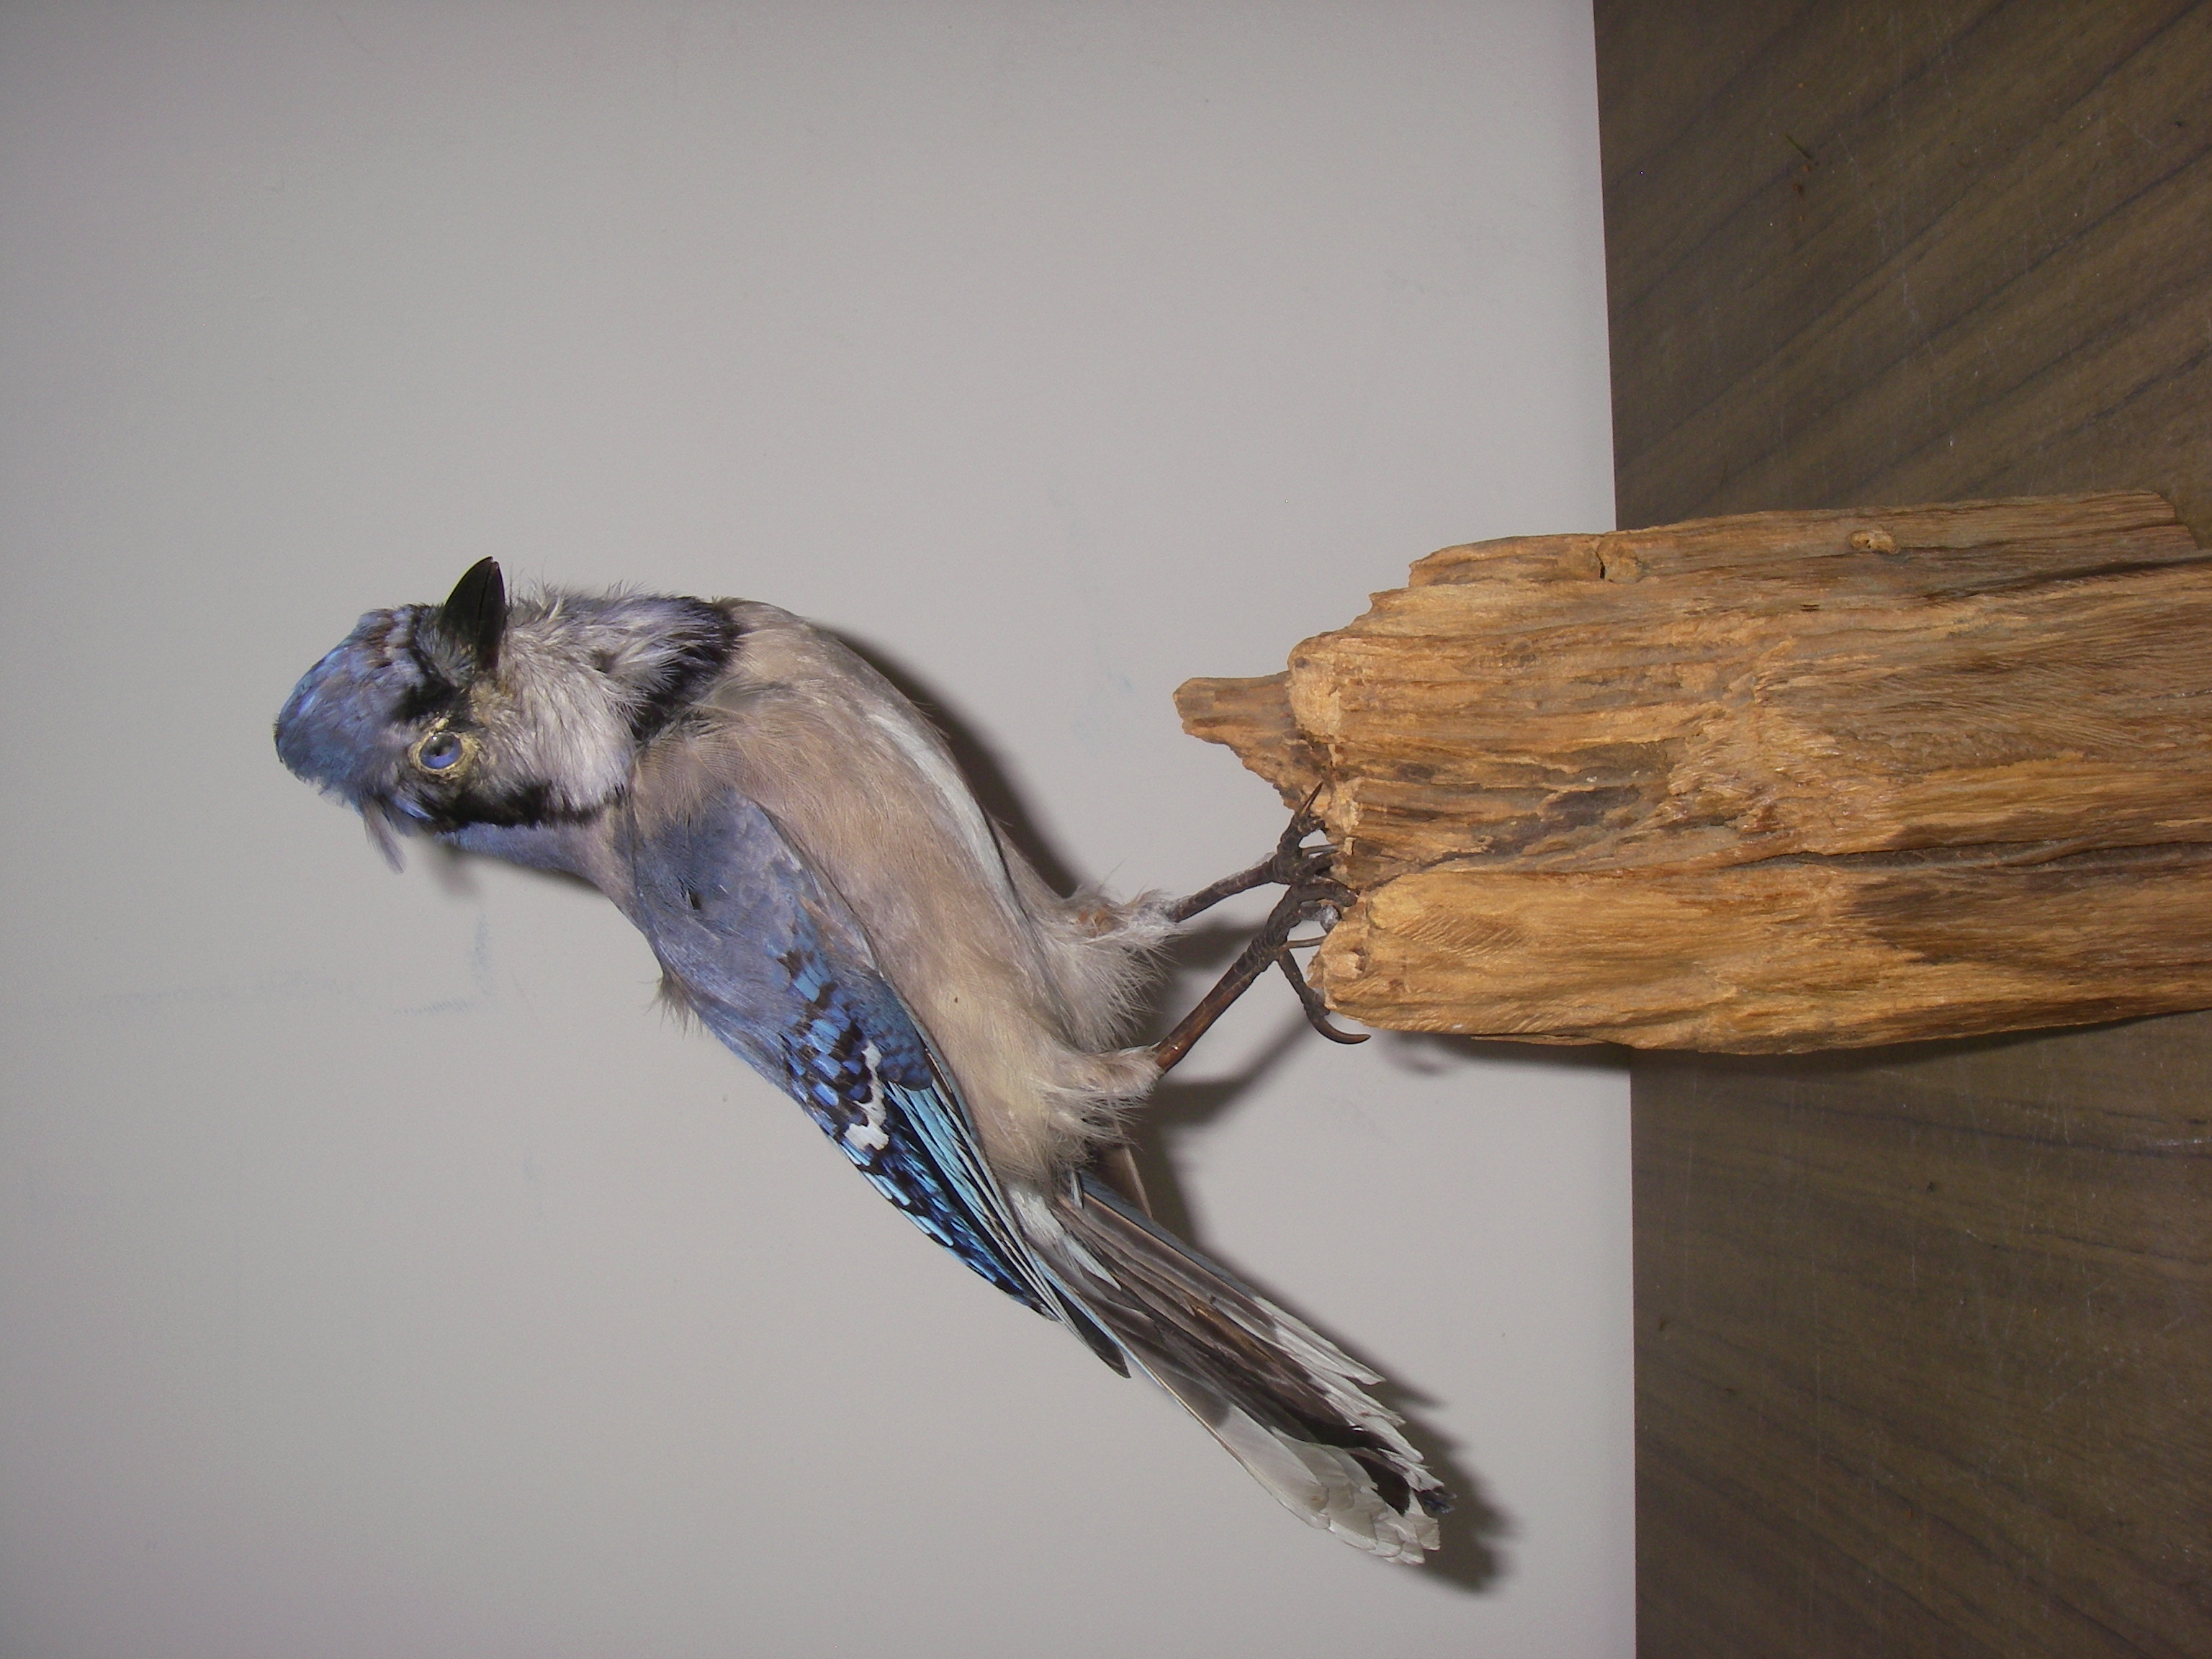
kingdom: Animalia
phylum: Chordata
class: Aves
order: Passeriformes
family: Corvidae
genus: Cyanocitta
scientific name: Cyanocitta cristata
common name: Blue jay
